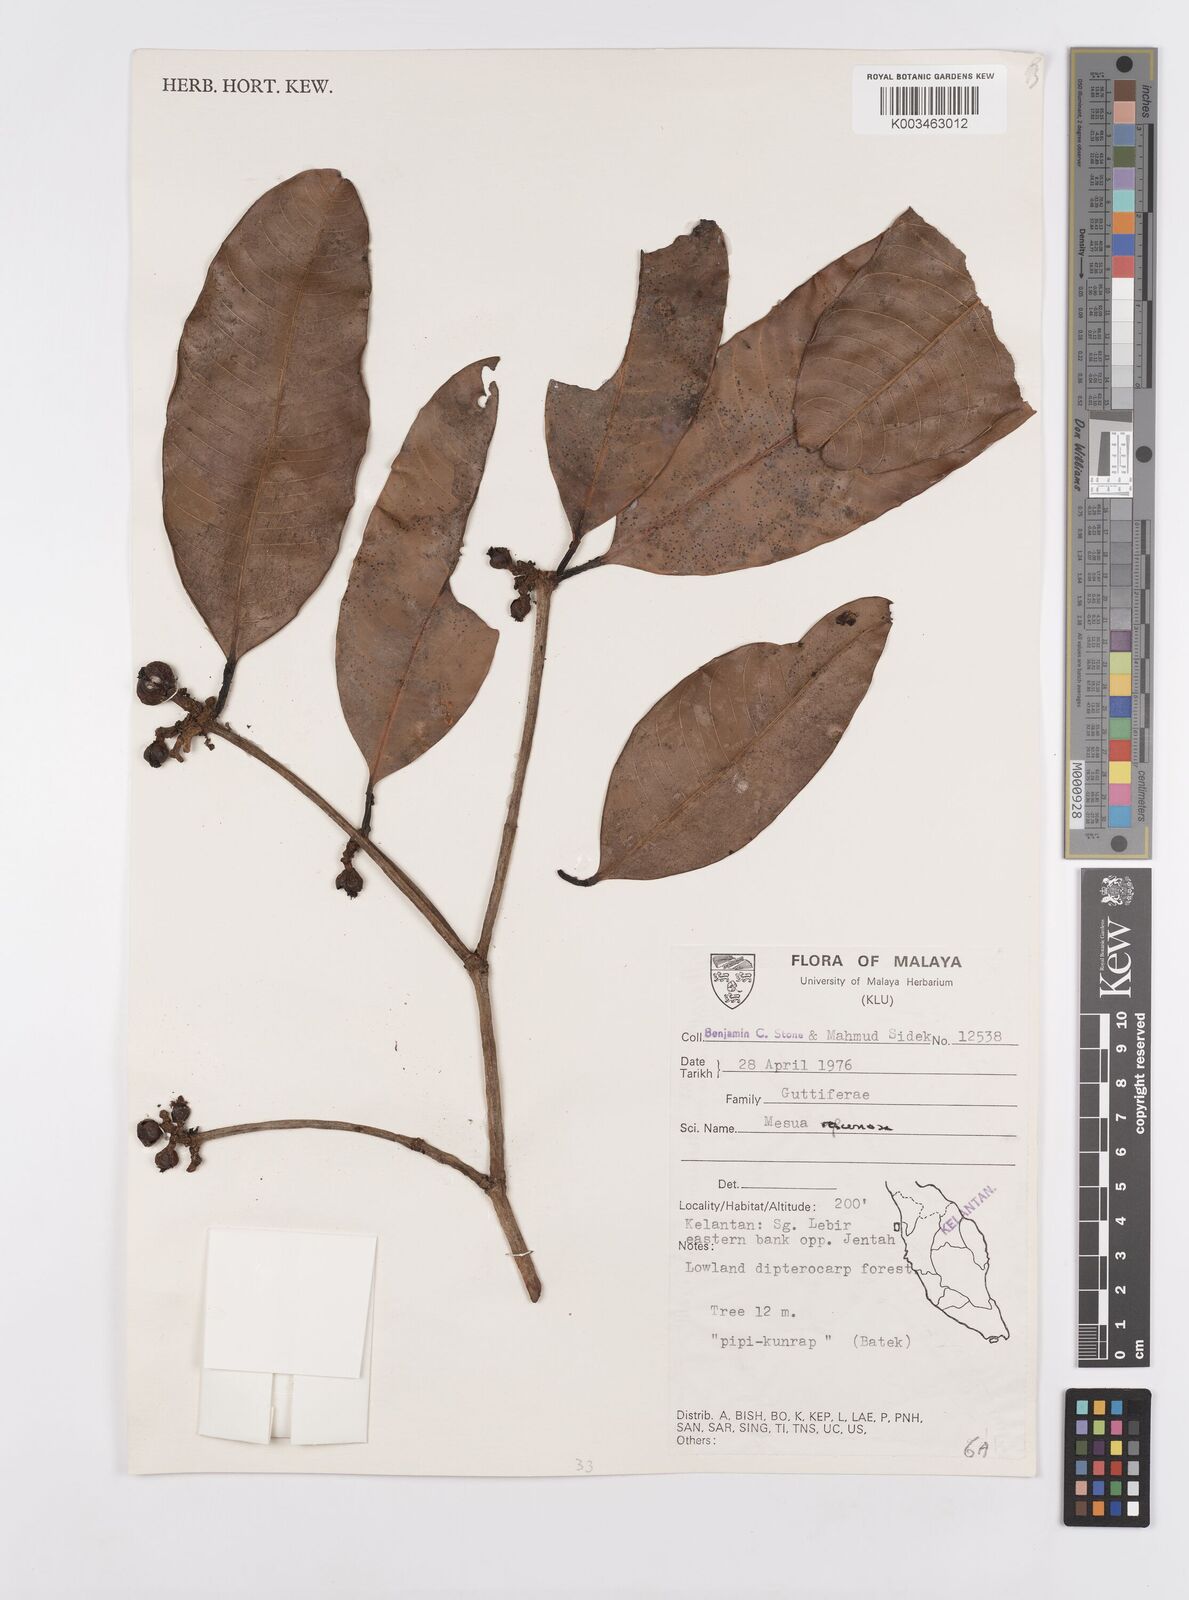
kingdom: Plantae
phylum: Tracheophyta
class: Magnoliopsida
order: Malpighiales
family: Calophyllaceae
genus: Kayea
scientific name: Kayea racemosa
